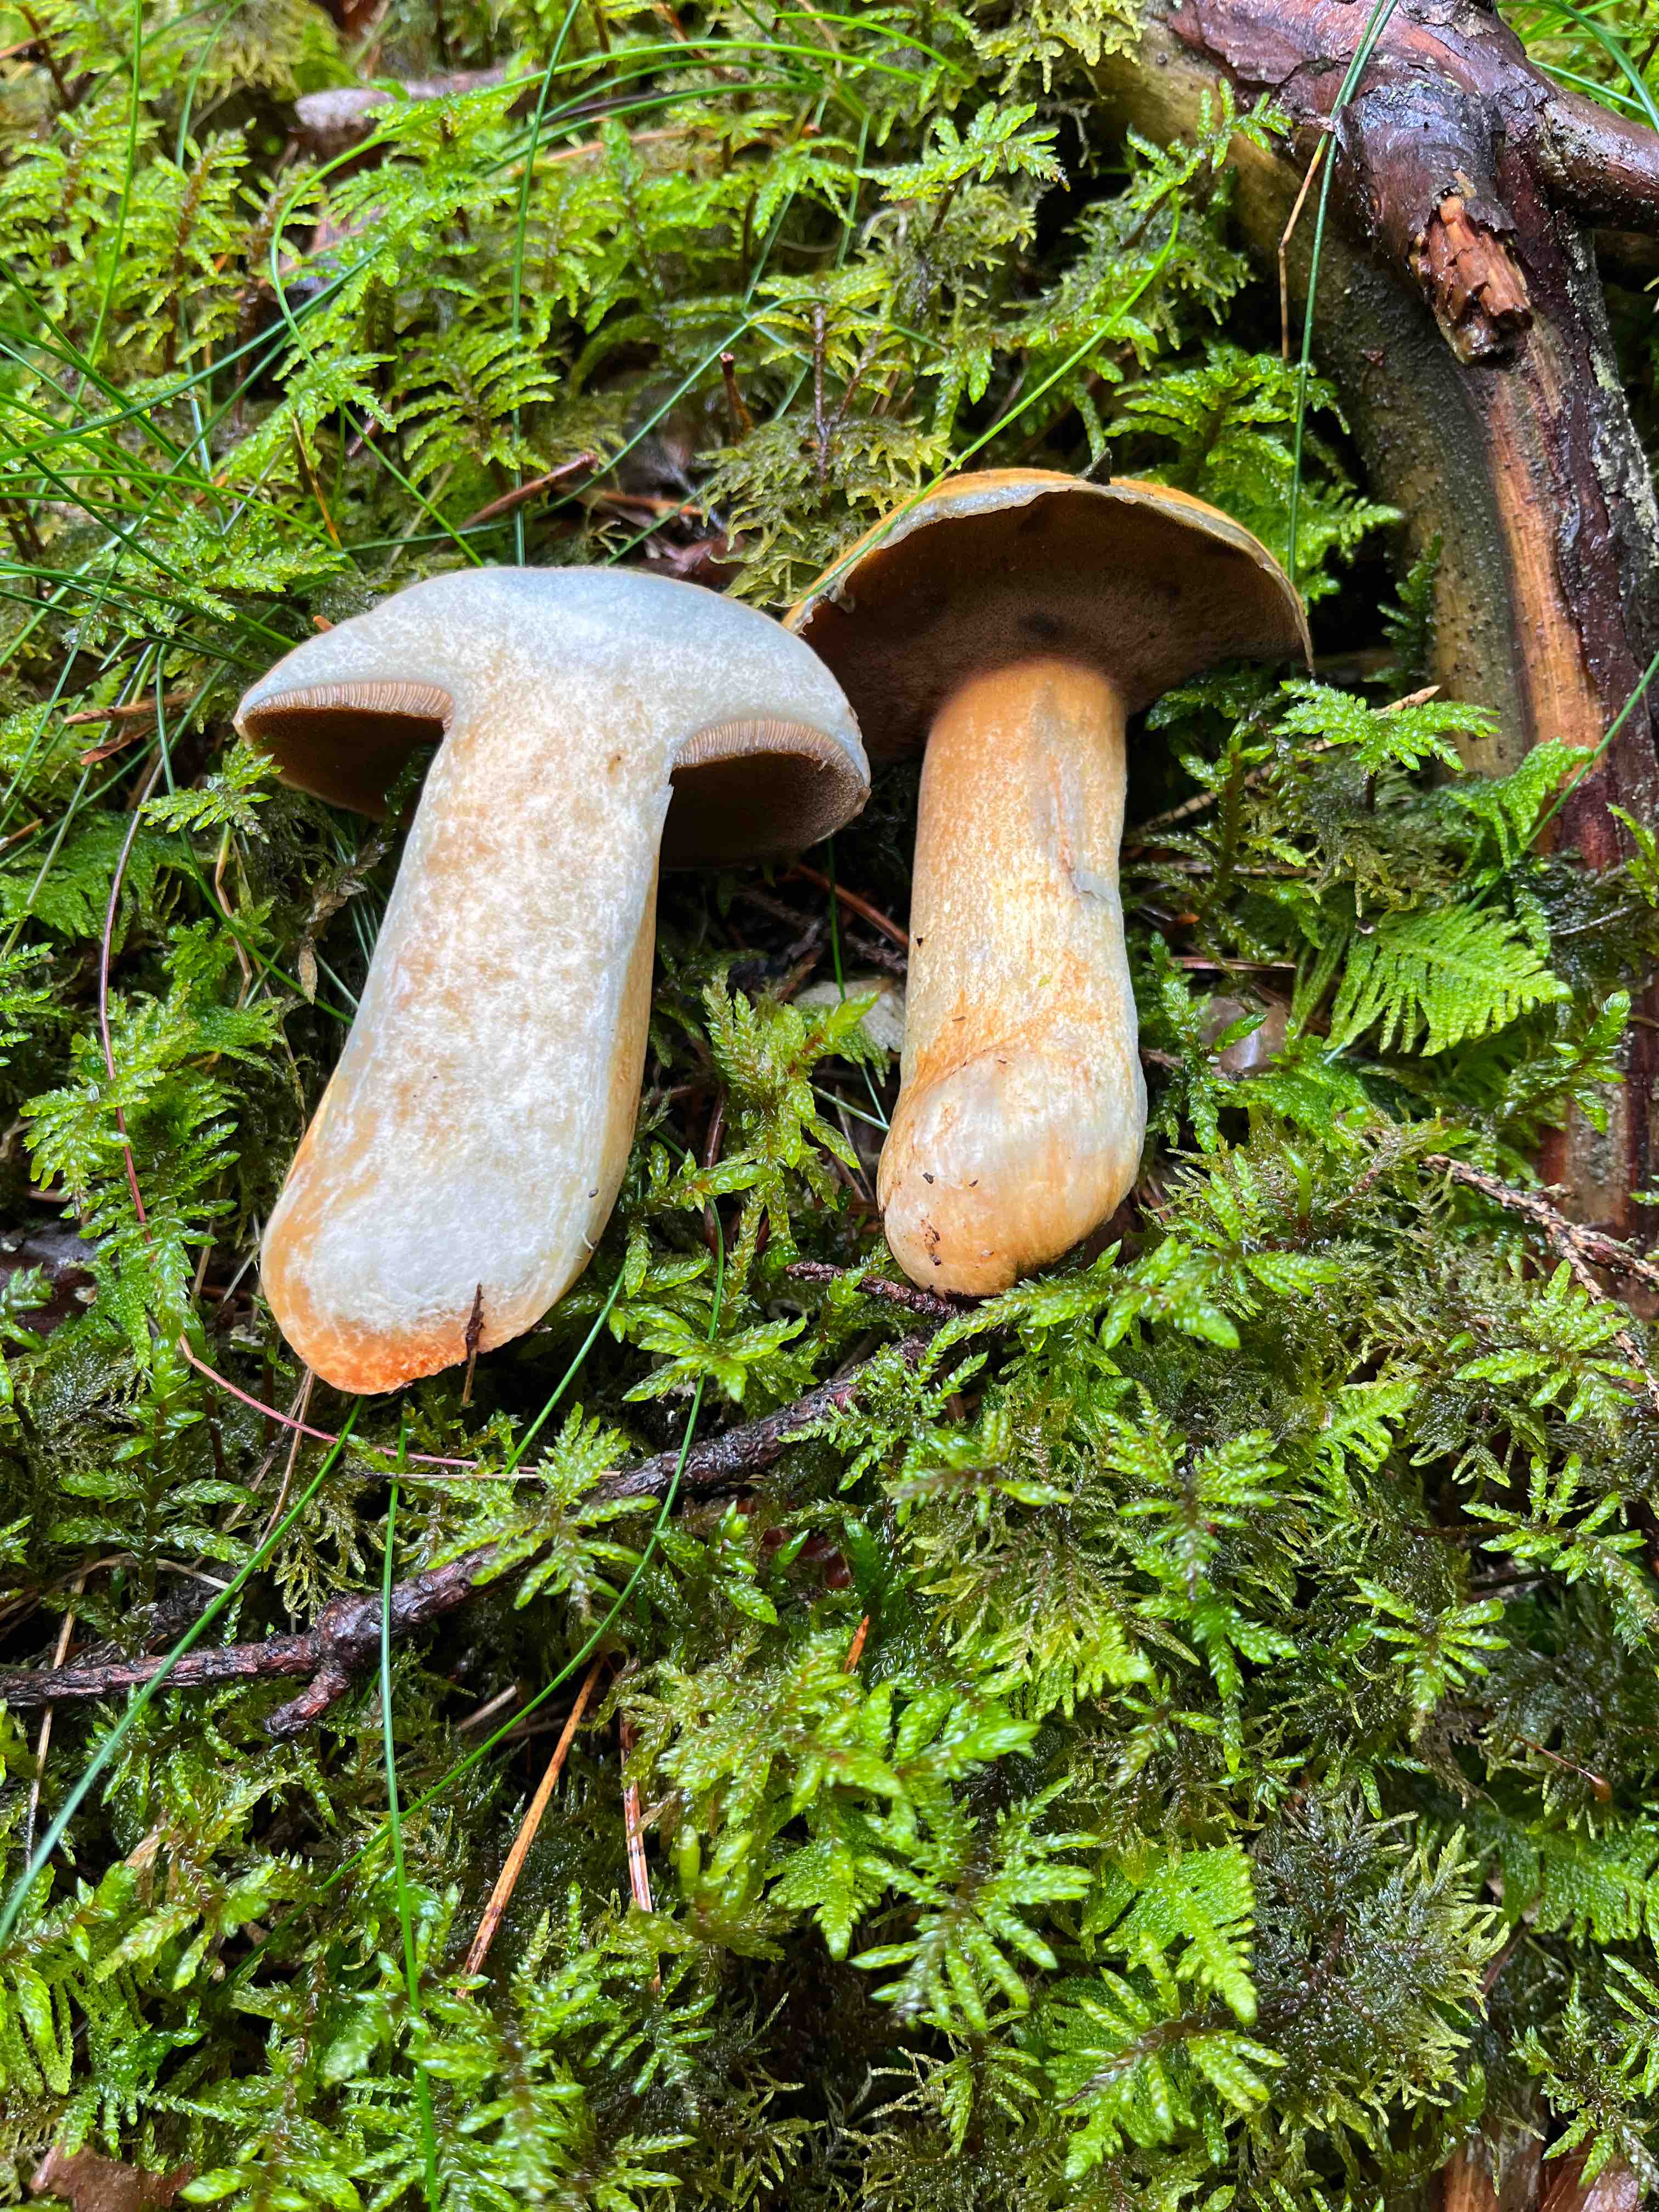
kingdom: Fungi
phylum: Basidiomycota
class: Agaricomycetes
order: Boletales
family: Suillaceae
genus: Suillus
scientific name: Suillus variegatus
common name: broget slimrørhat
